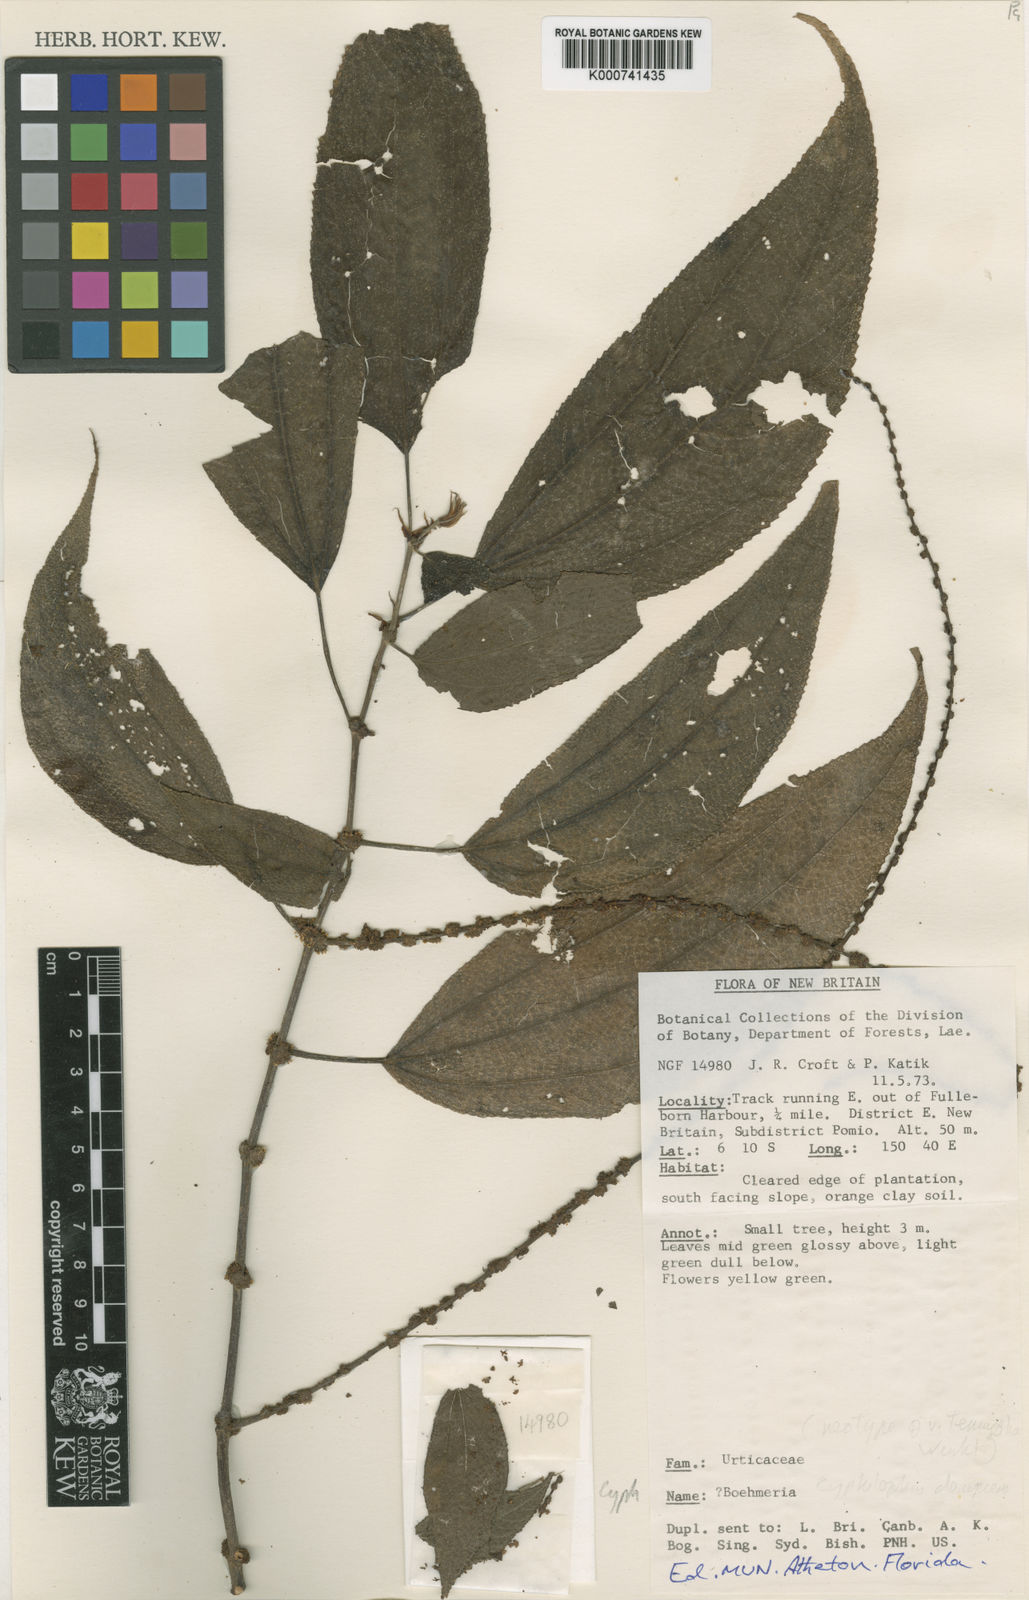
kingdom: Plantae
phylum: Tracheophyta
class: Magnoliopsida
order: Rosales
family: Urticaceae
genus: Cypholophus
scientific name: Cypholophus decipiens
